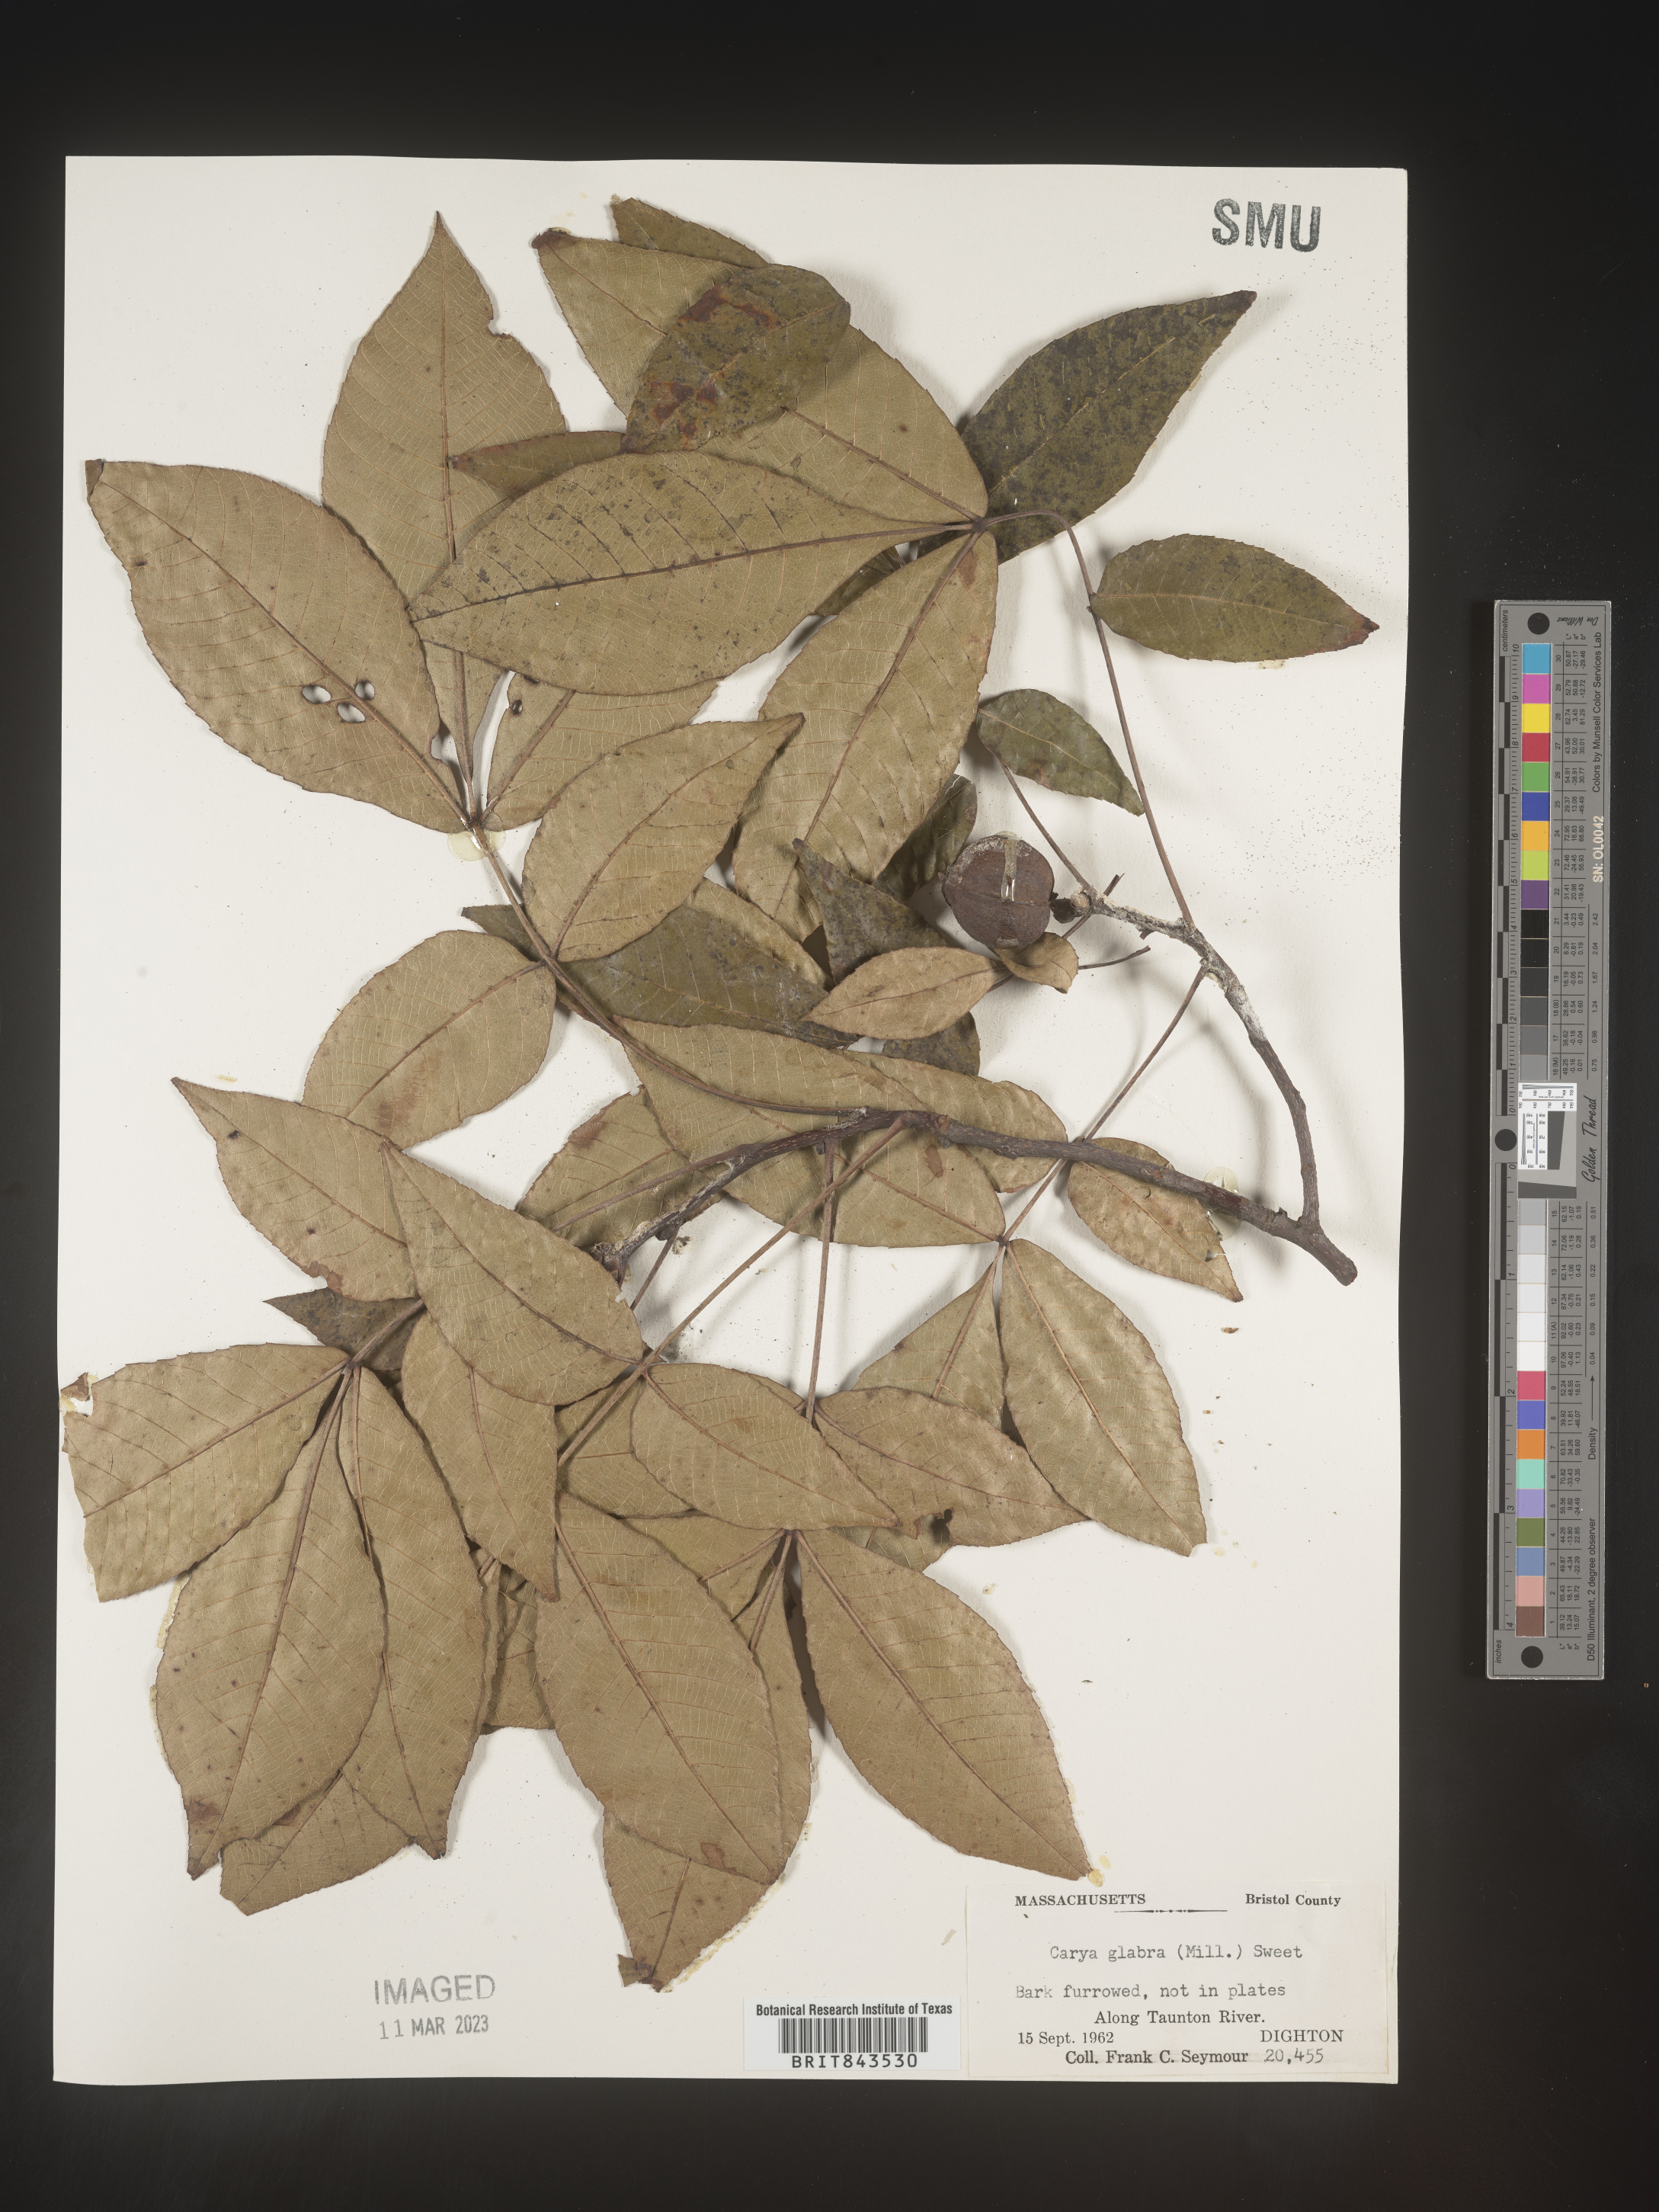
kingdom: Plantae
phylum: Tracheophyta
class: Magnoliopsida
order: Fagales
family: Juglandaceae
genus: Carya
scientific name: Carya glabra
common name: Pignut hickory
